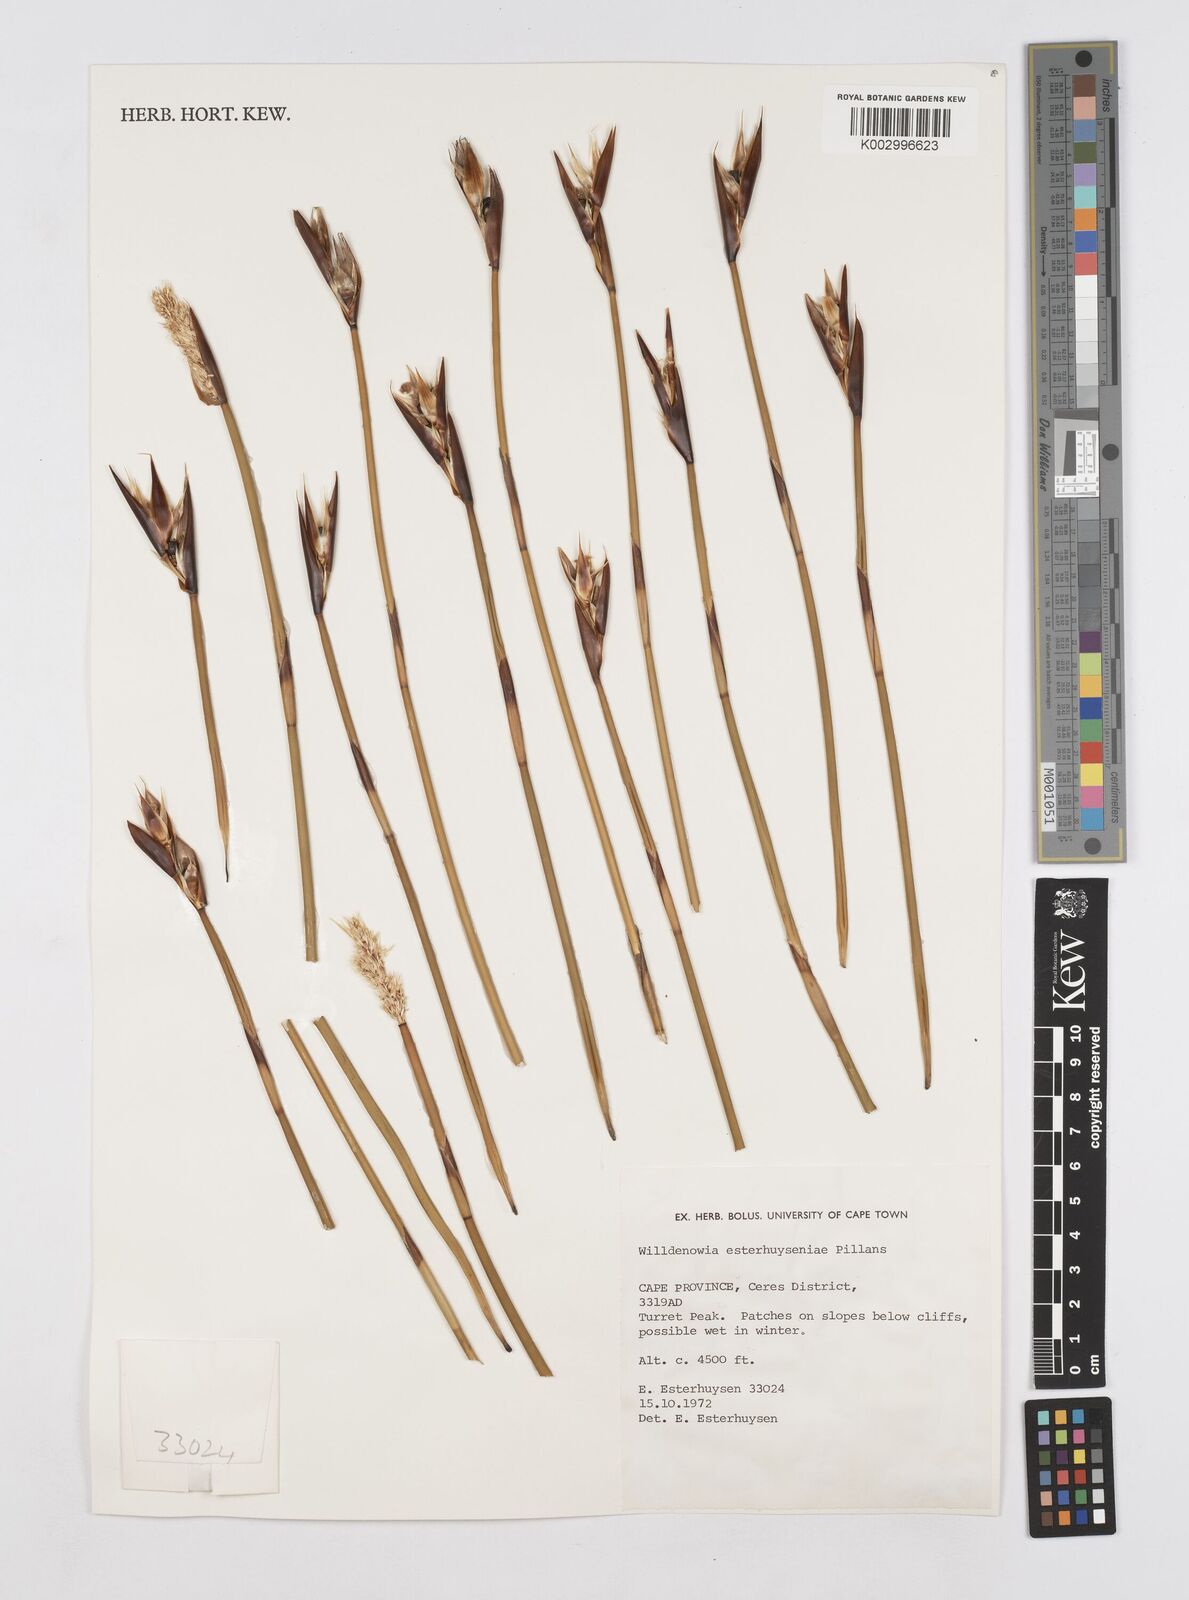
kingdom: Plantae
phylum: Tracheophyta
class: Liliopsida
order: Poales
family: Restionaceae
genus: Ceratocaryum
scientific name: Ceratocaryum fimbriatum
